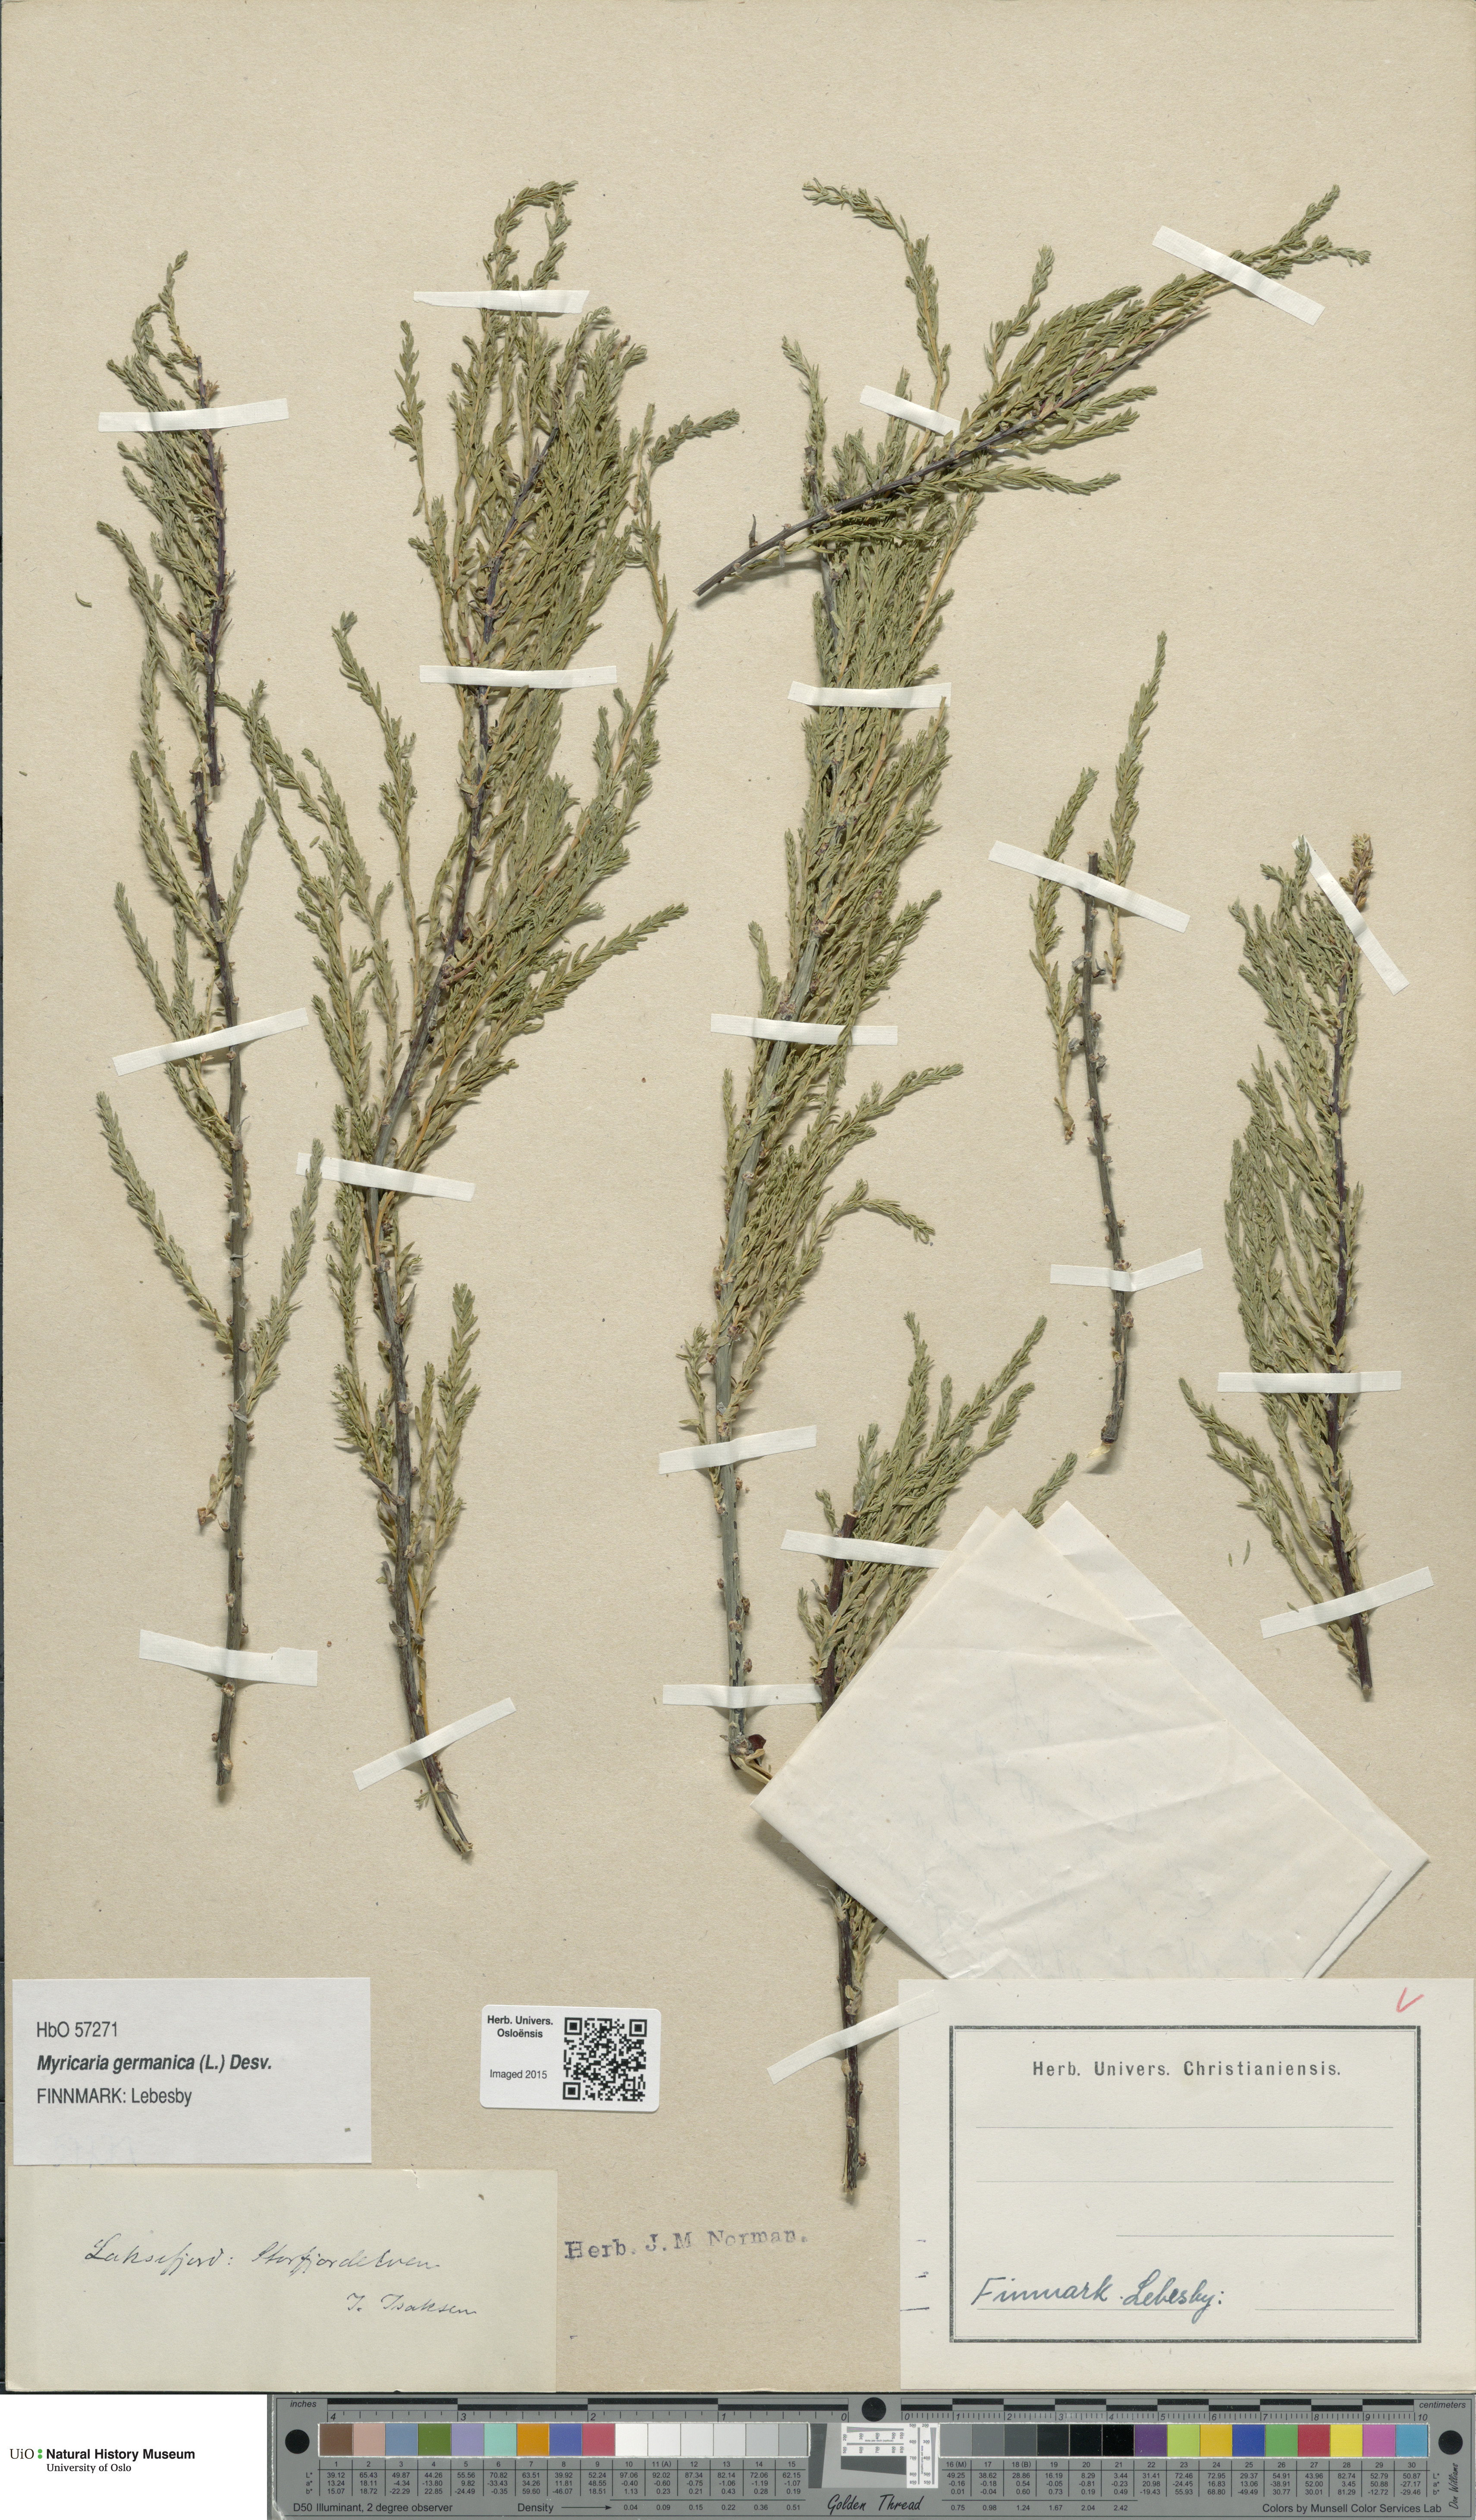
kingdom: Plantae
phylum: Tracheophyta
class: Magnoliopsida
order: Caryophyllales
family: Tamaricaceae
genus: Myricaria
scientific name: Myricaria germanica
